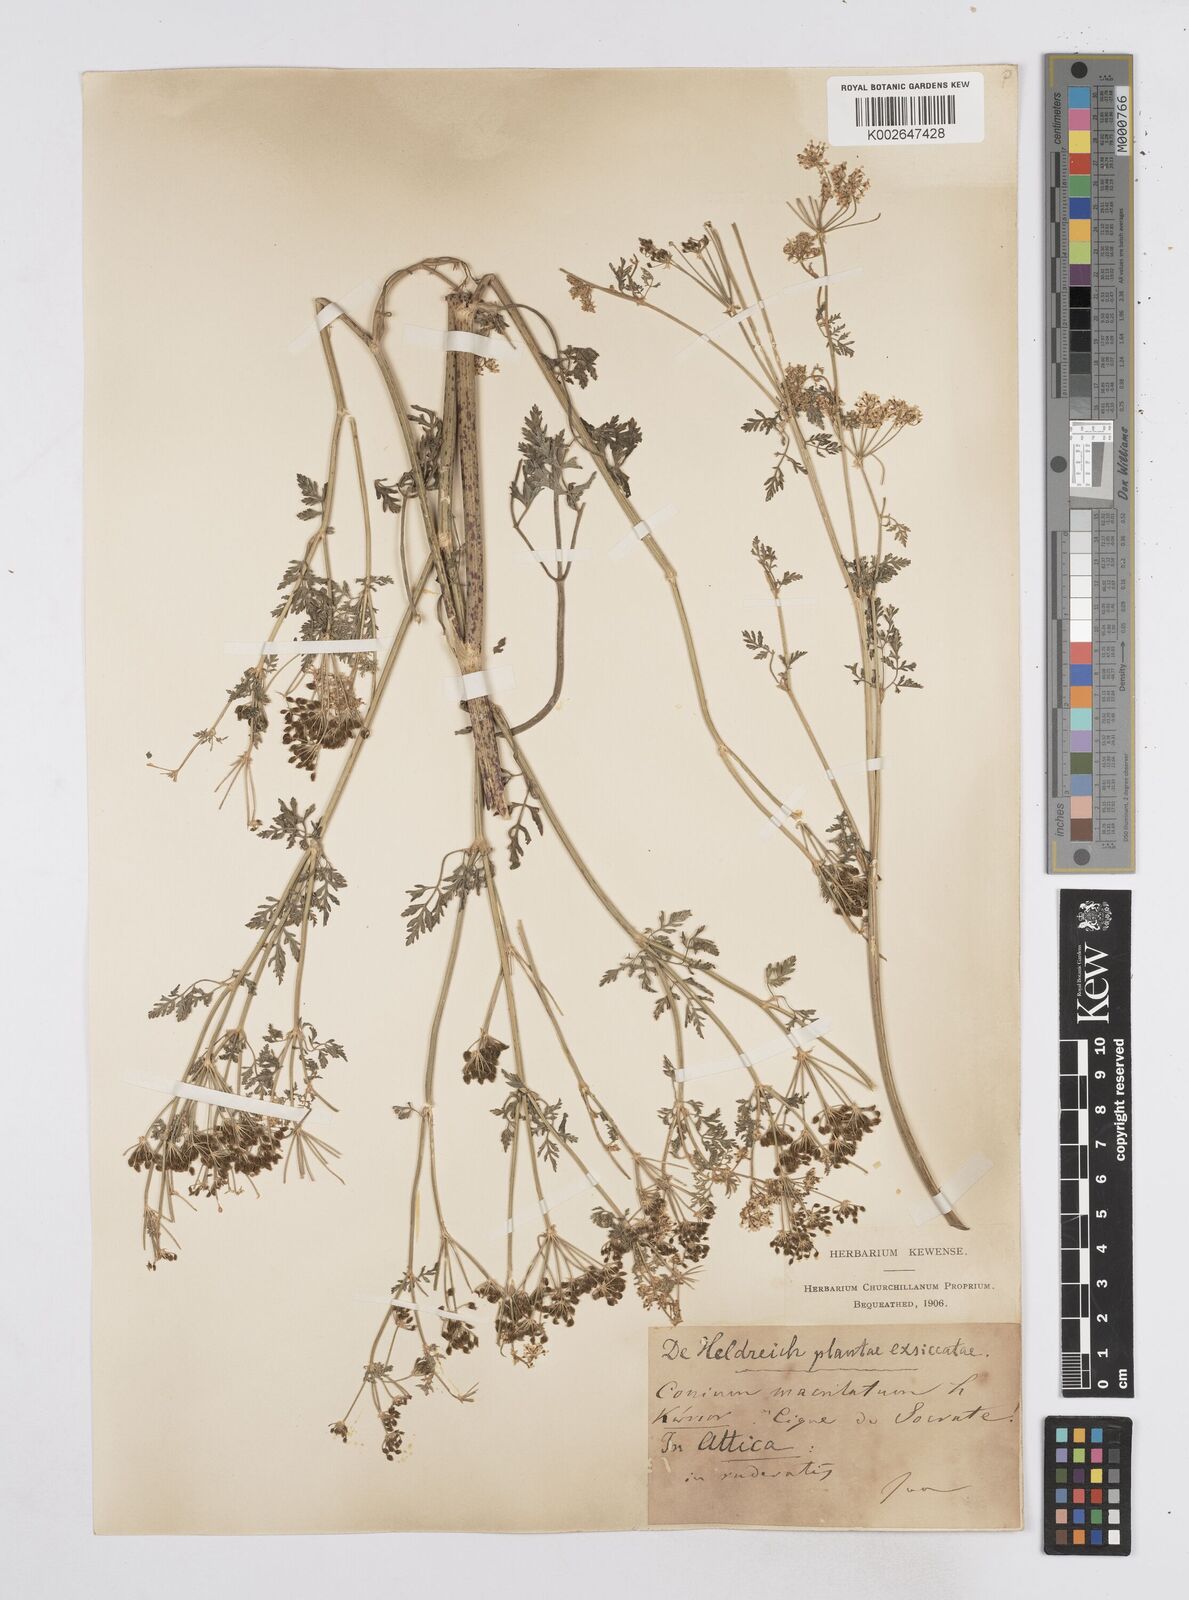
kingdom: Plantae
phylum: Tracheophyta
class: Magnoliopsida
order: Apiales
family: Apiaceae
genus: Conium
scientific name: Conium maculatum
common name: Hemlock
